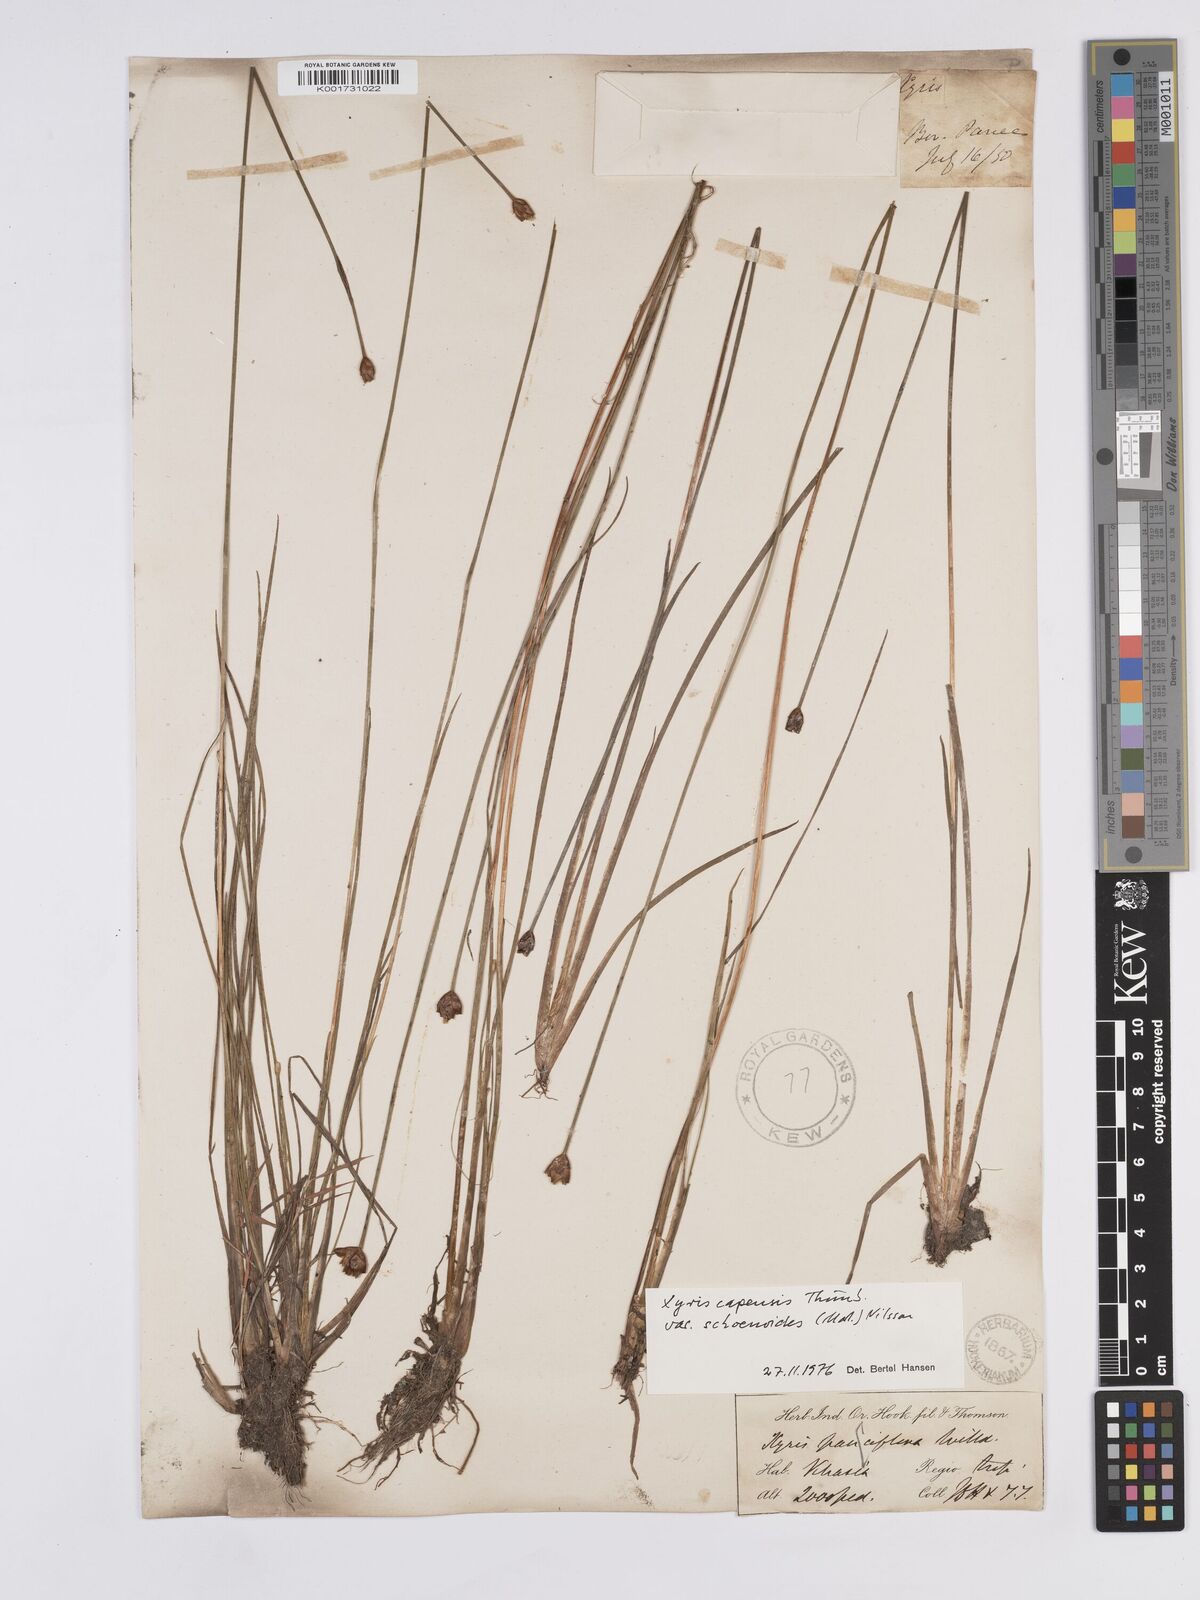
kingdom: Plantae
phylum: Tracheophyta
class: Liliopsida
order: Poales
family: Xyridaceae
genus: Xyris
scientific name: Xyris capensis
